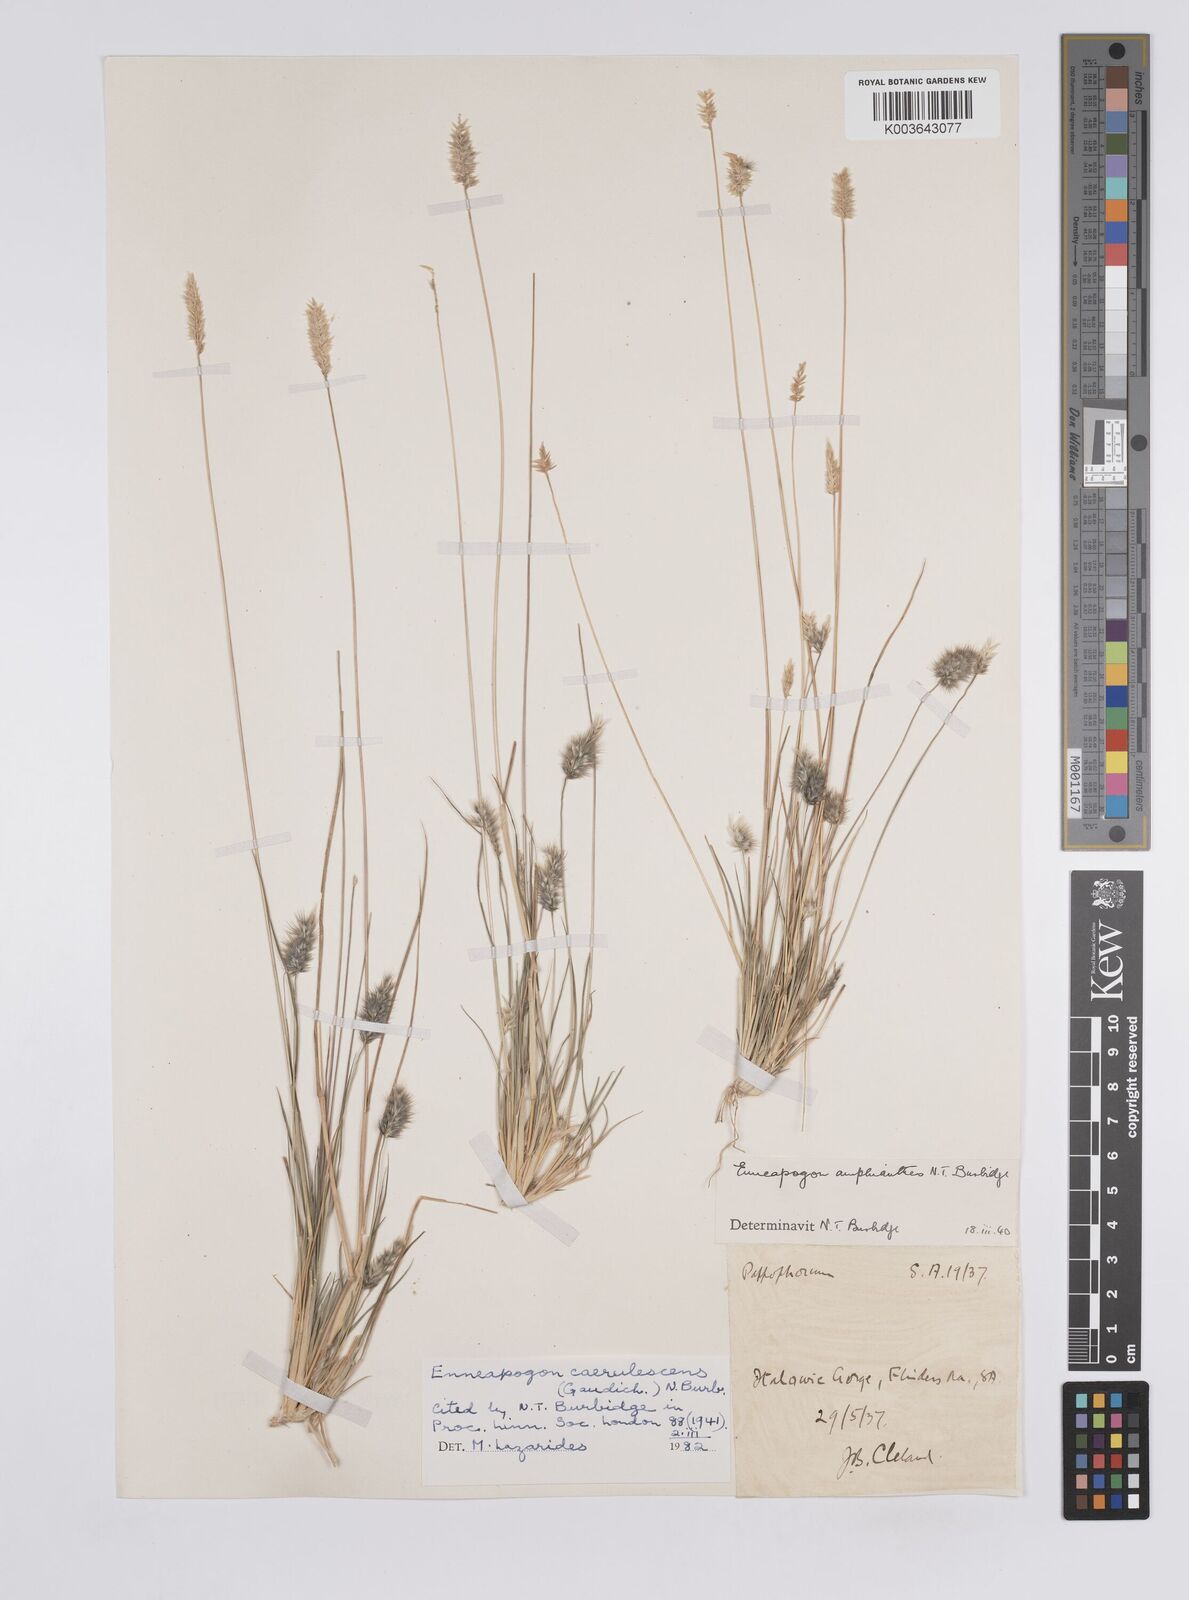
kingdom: Plantae
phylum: Tracheophyta
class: Liliopsida
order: Poales
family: Poaceae
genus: Enneapogon
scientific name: Enneapogon caerulescens
